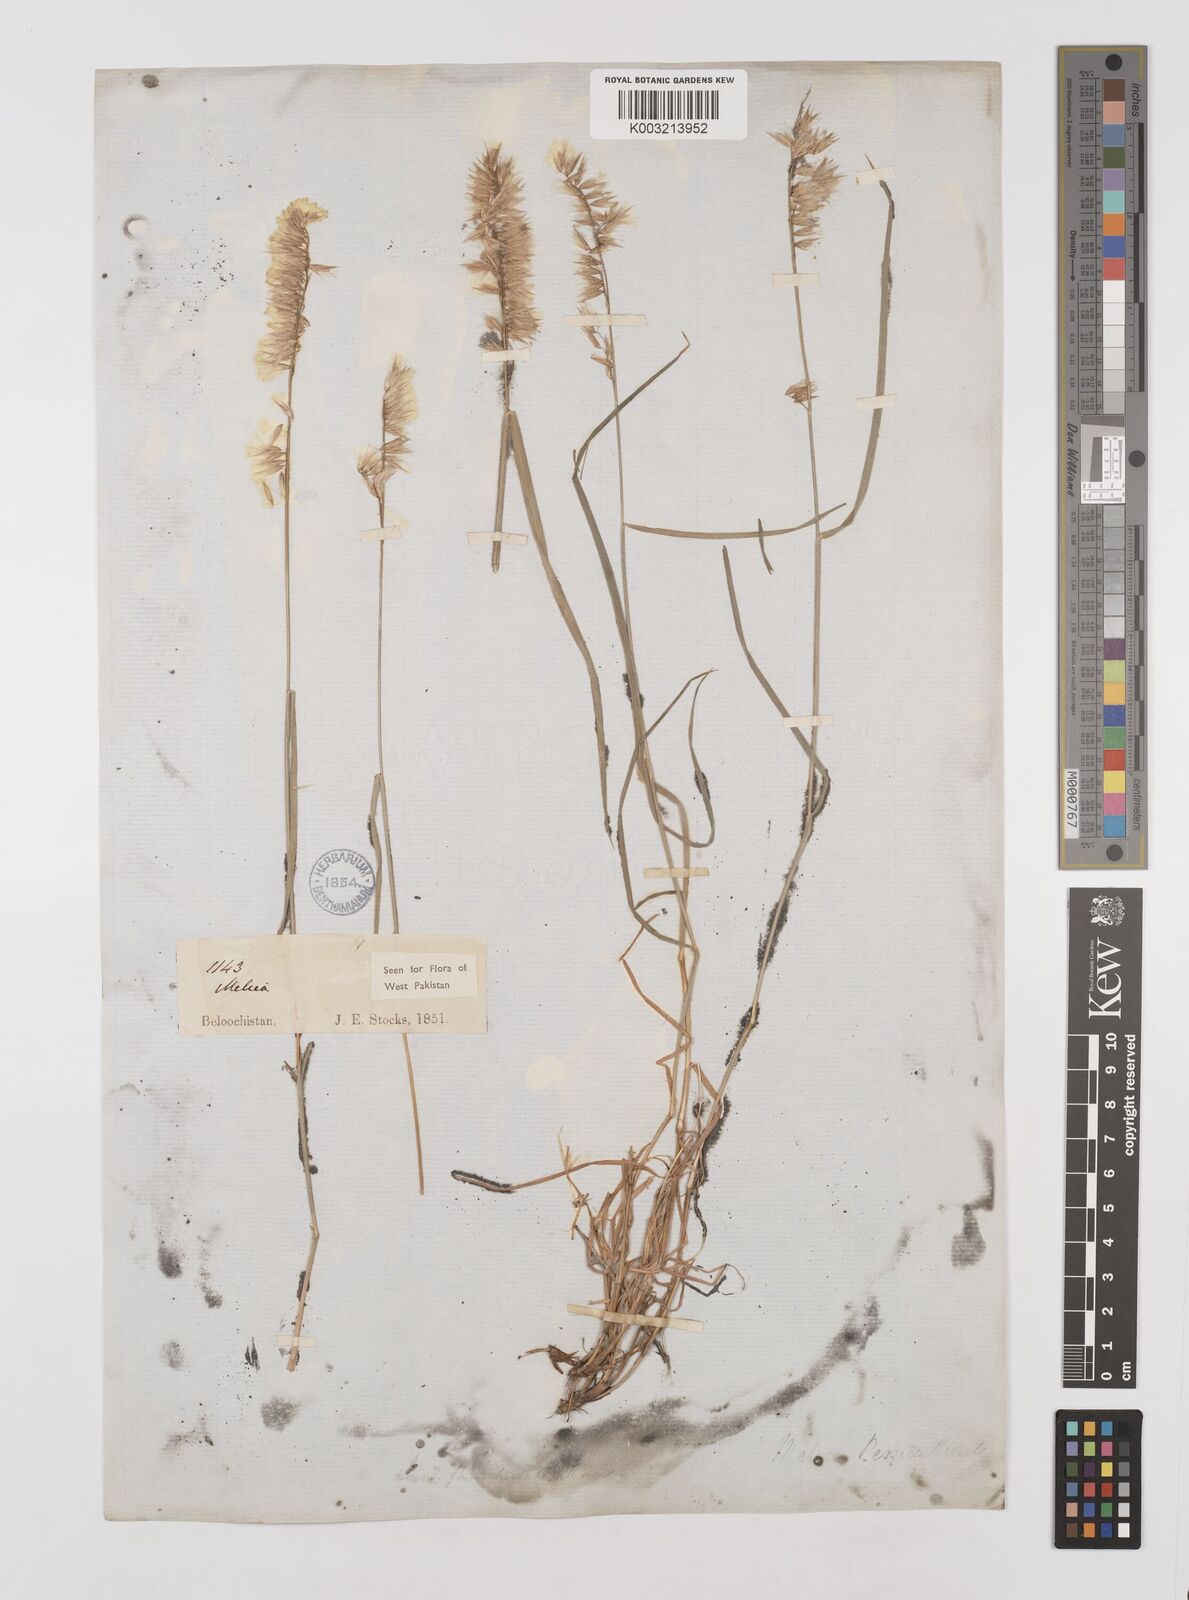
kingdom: Plantae
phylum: Tracheophyta
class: Liliopsida
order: Poales
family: Poaceae
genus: Melica
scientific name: Melica persica
